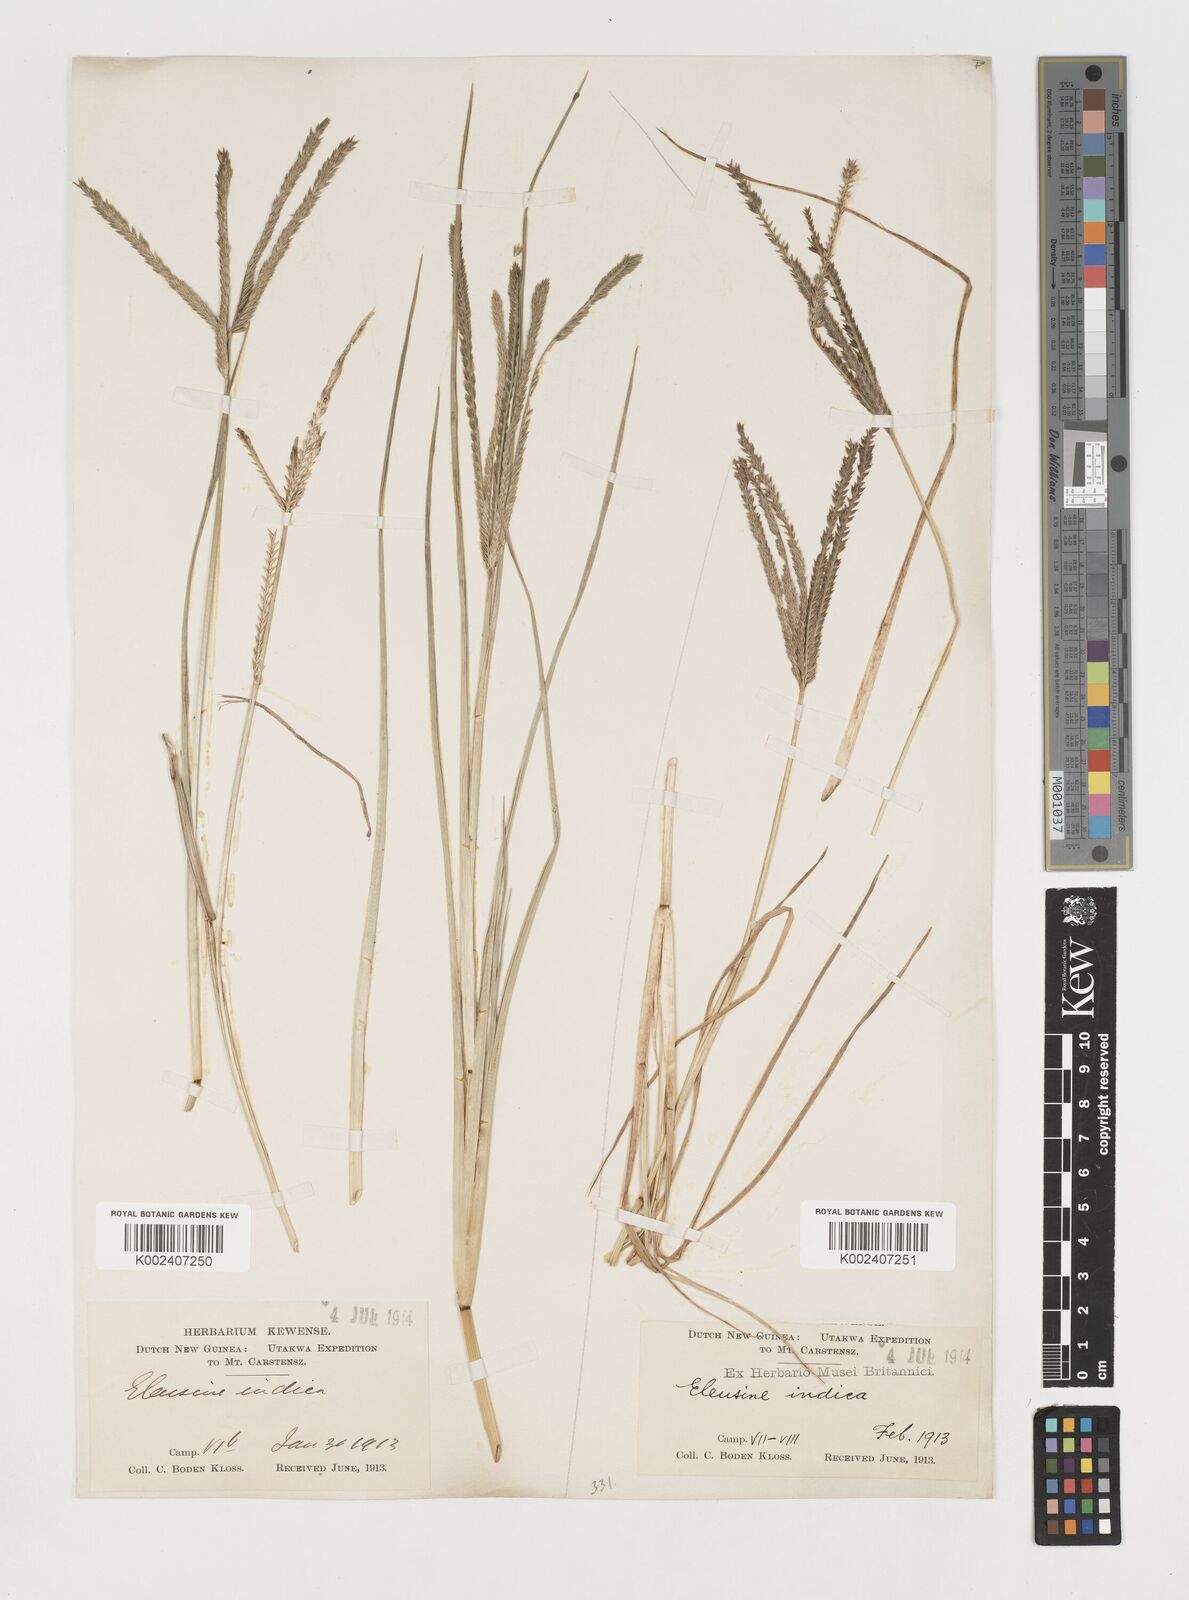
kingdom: Plantae
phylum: Tracheophyta
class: Liliopsida
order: Poales
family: Poaceae
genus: Eleusine
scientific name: Eleusine indica
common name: Yard-grass
